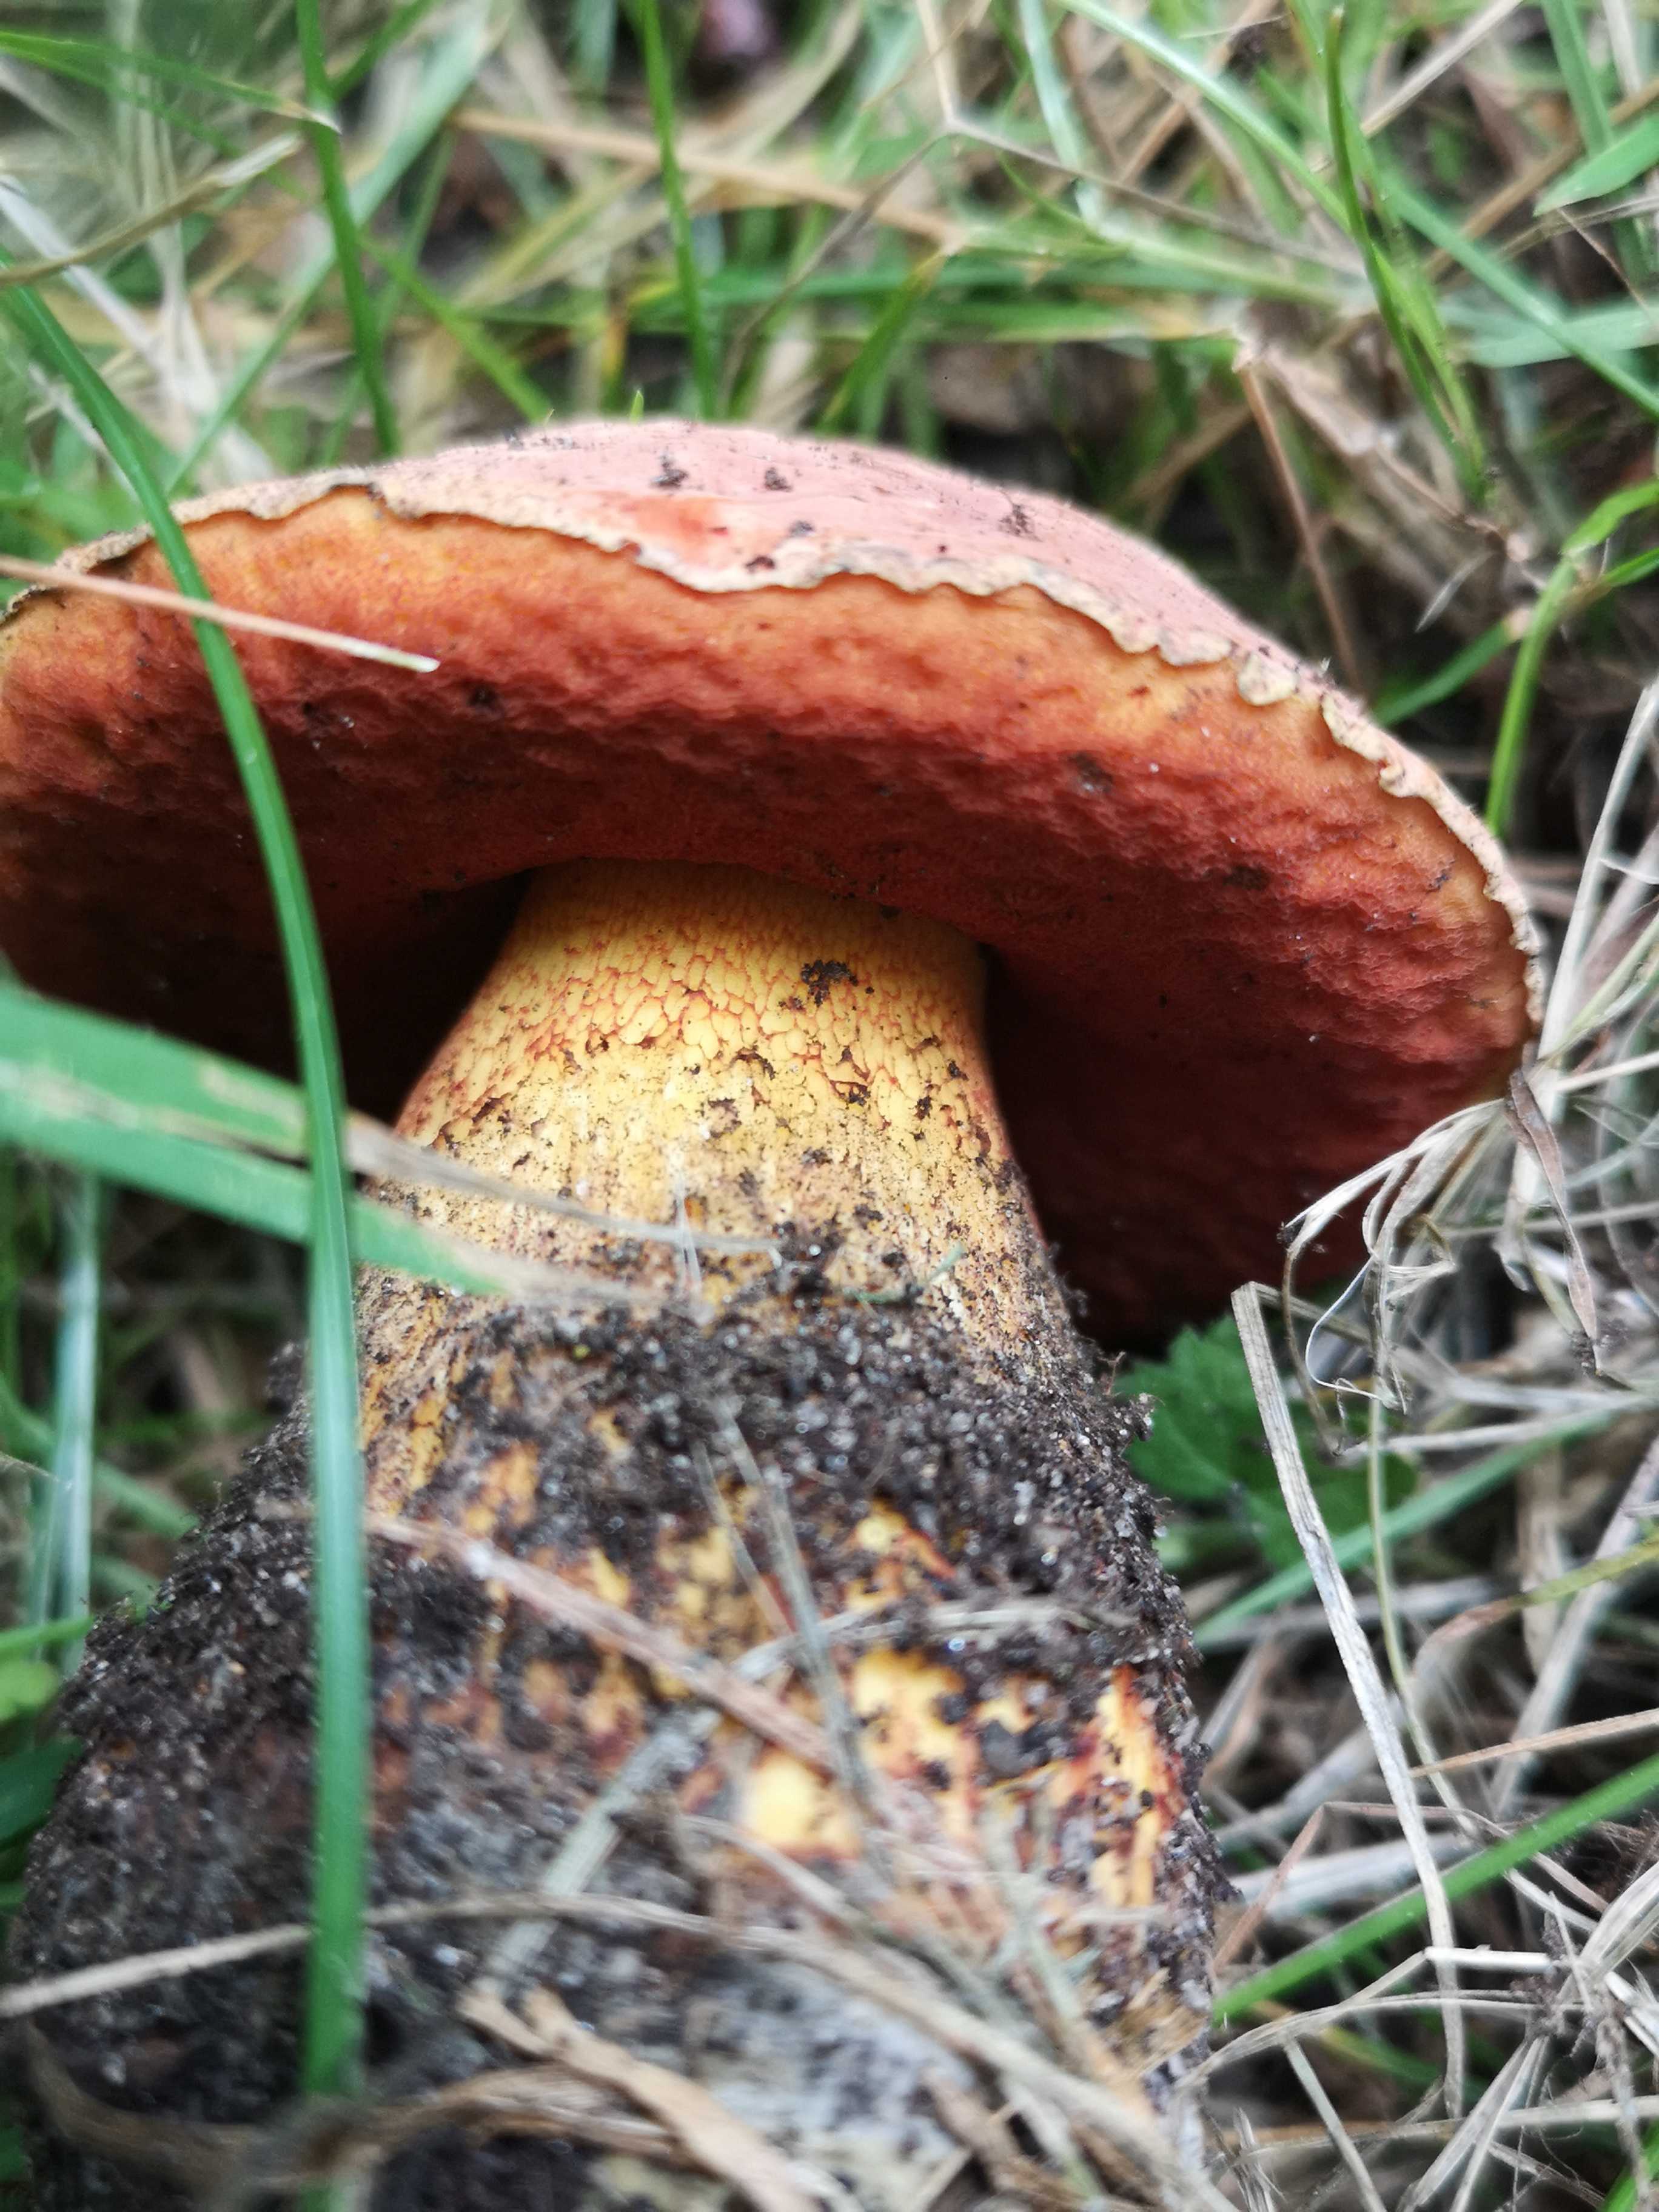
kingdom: Fungi
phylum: Basidiomycota
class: Agaricomycetes
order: Boletales
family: Boletaceae
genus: Suillellus
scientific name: Suillellus luridus
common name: netstokket indigorørhat
